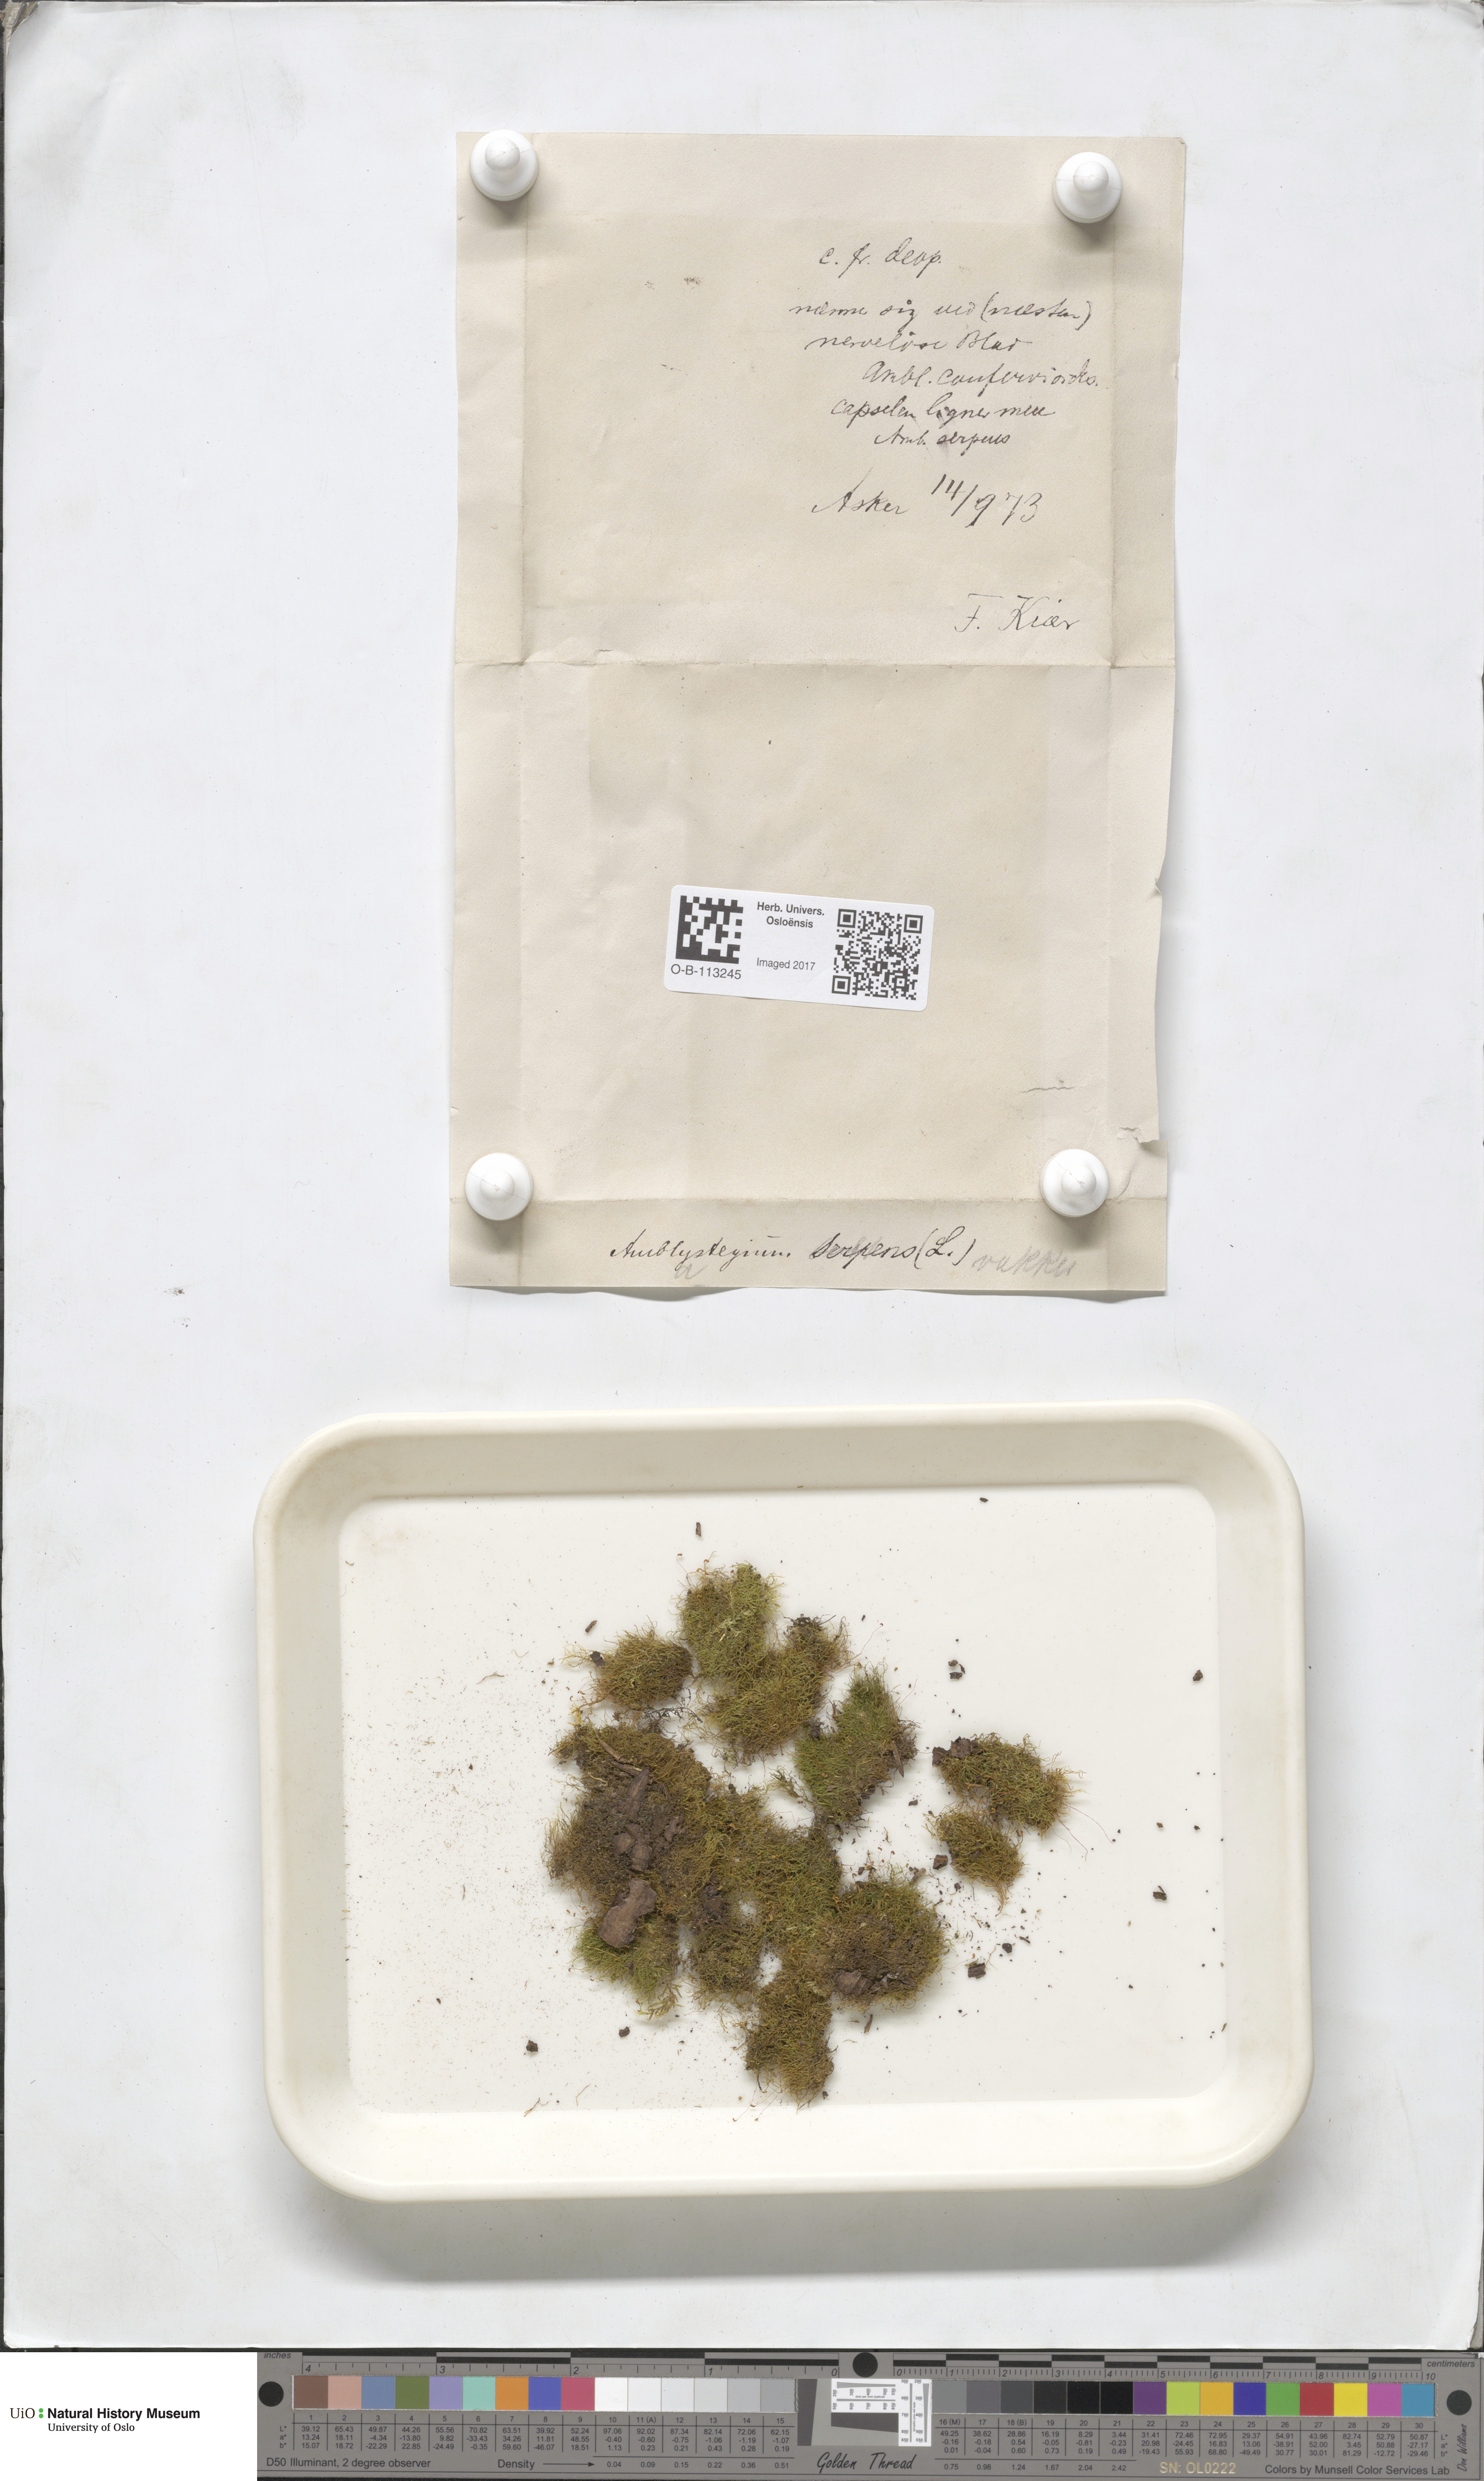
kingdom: Plantae
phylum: Bryophyta
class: Bryopsida
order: Hypnales
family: Amblystegiaceae
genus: Amblystegium
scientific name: Amblystegium serpens
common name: Jurkatzka's feather moss
